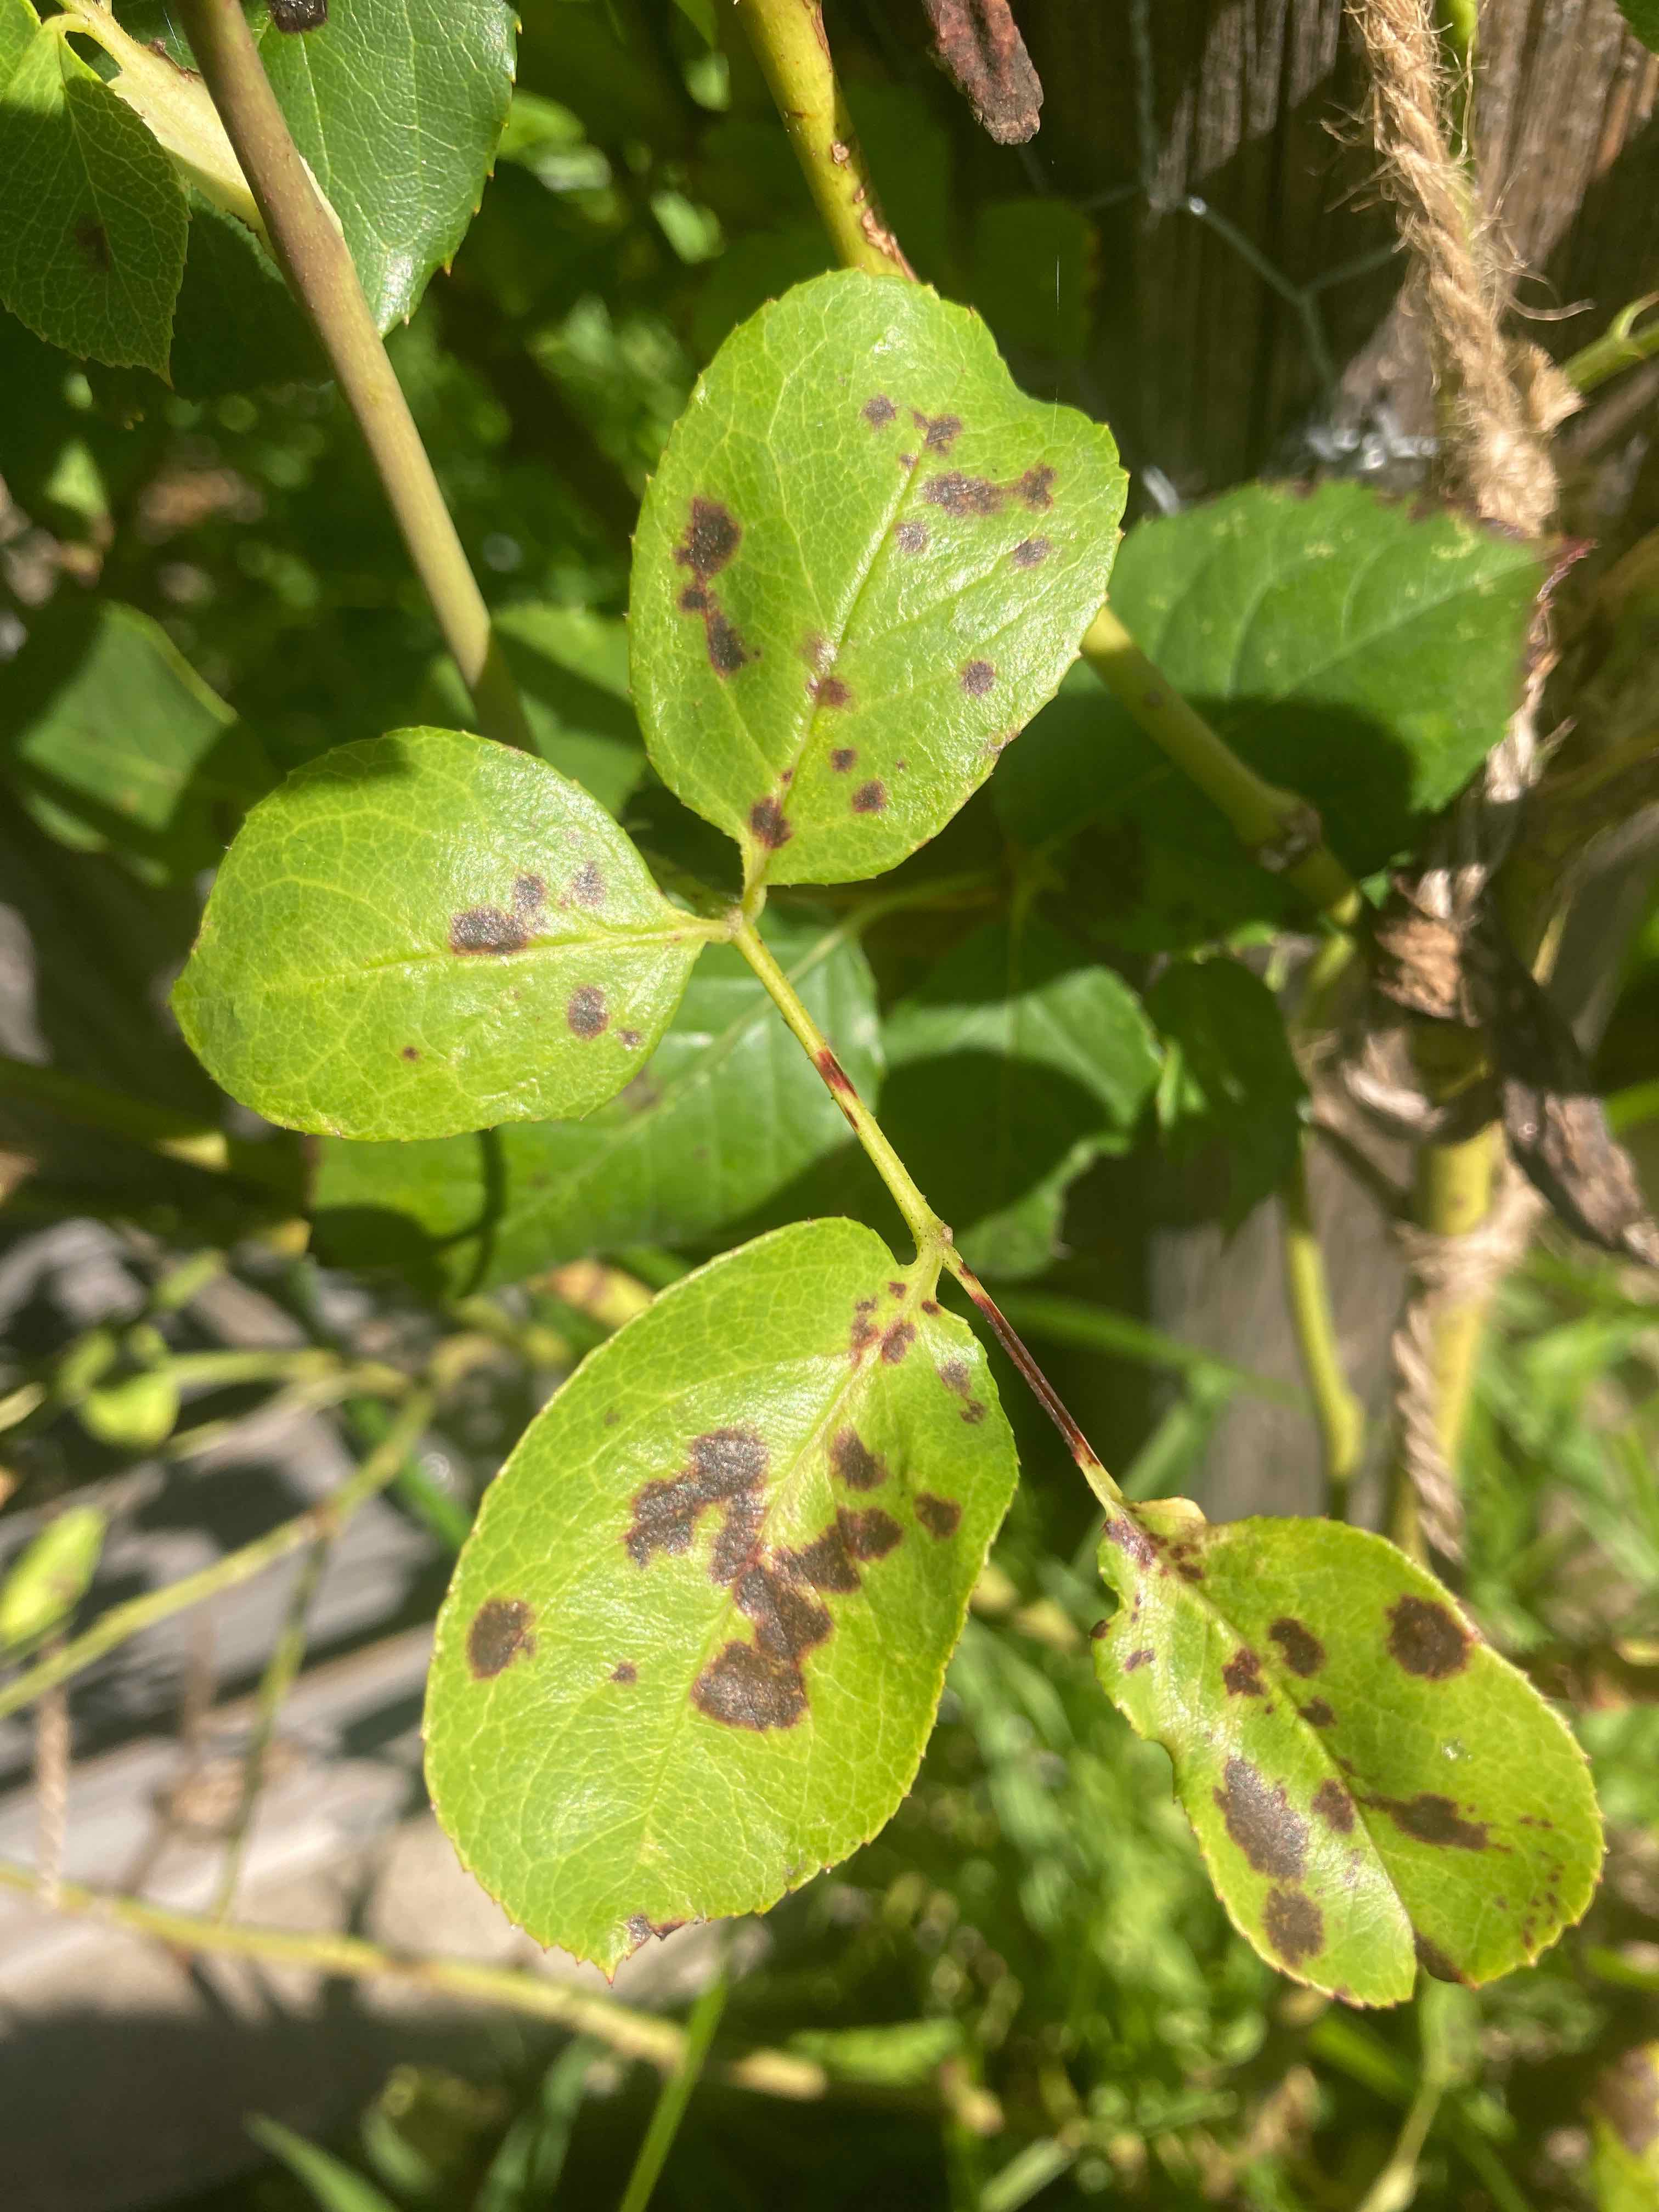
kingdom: Fungi
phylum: Ascomycota
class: Leotiomycetes
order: Helotiales
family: Drepanopezizaceae
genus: Diplocarpon
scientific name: Diplocarpon rosae
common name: Rose black-spot
